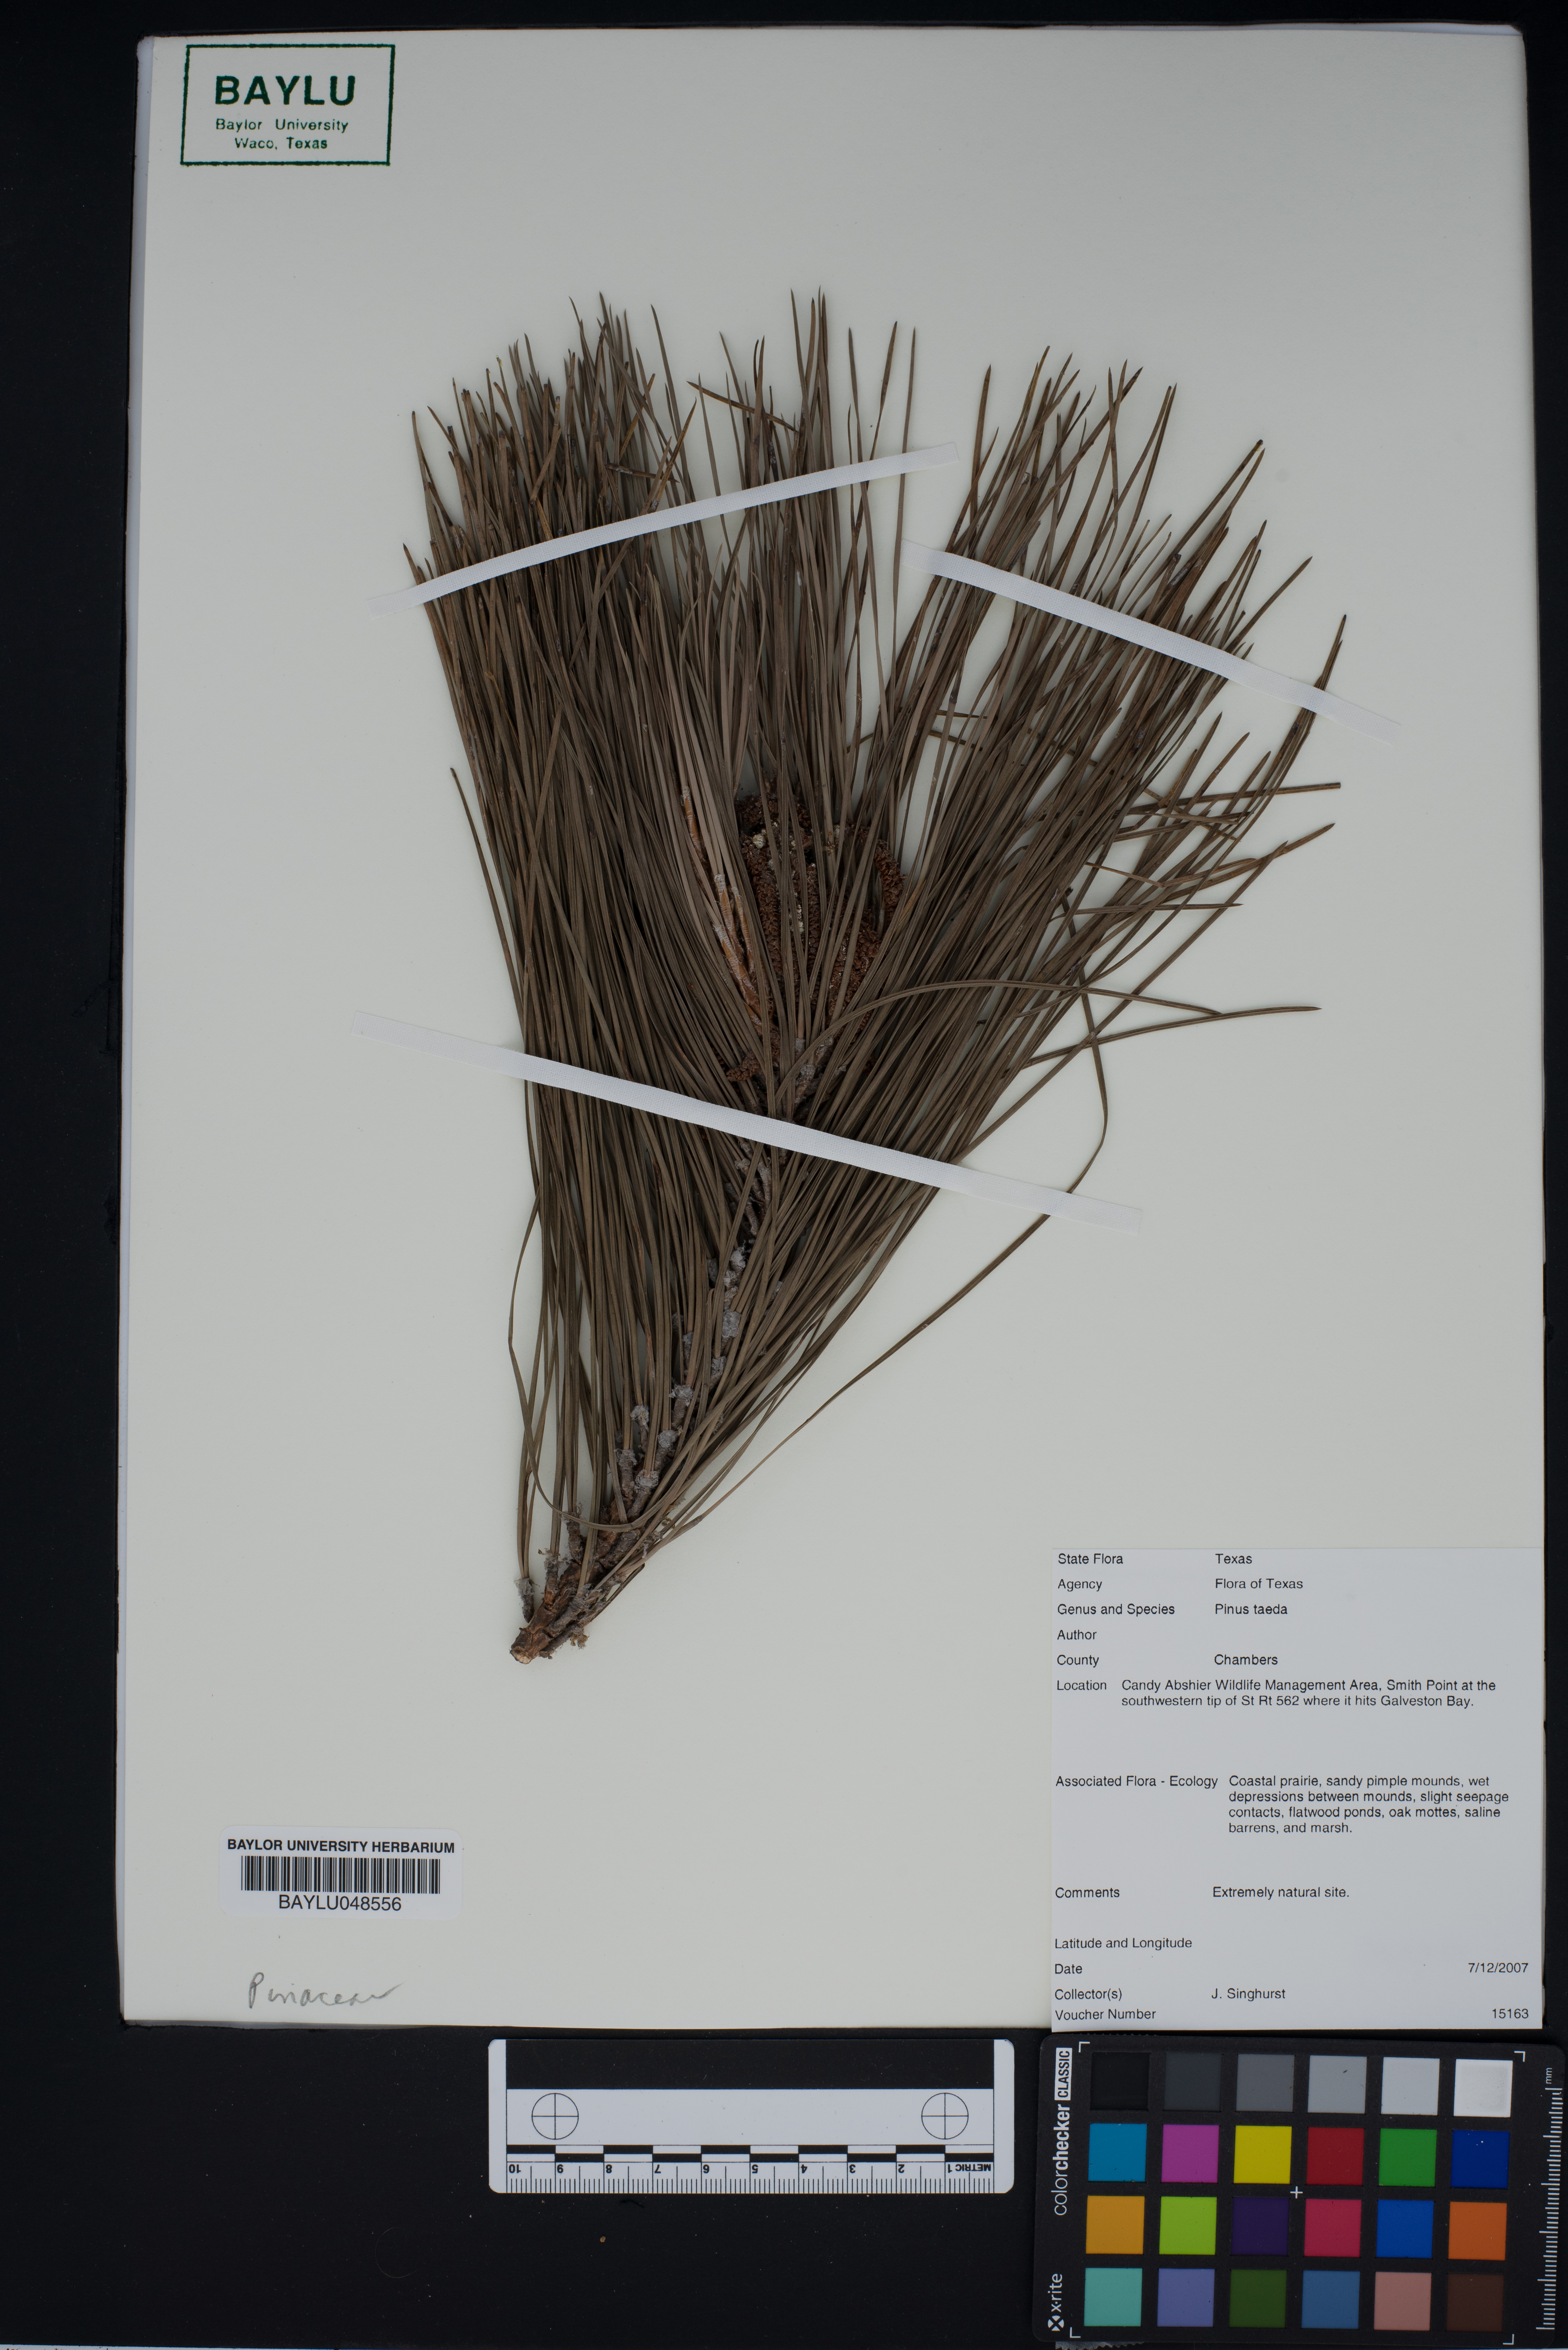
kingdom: Plantae
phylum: Tracheophyta
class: Pinopsida
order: Pinales
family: Pinaceae
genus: Pinus
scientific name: Pinus taeda
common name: Loblolly pine
